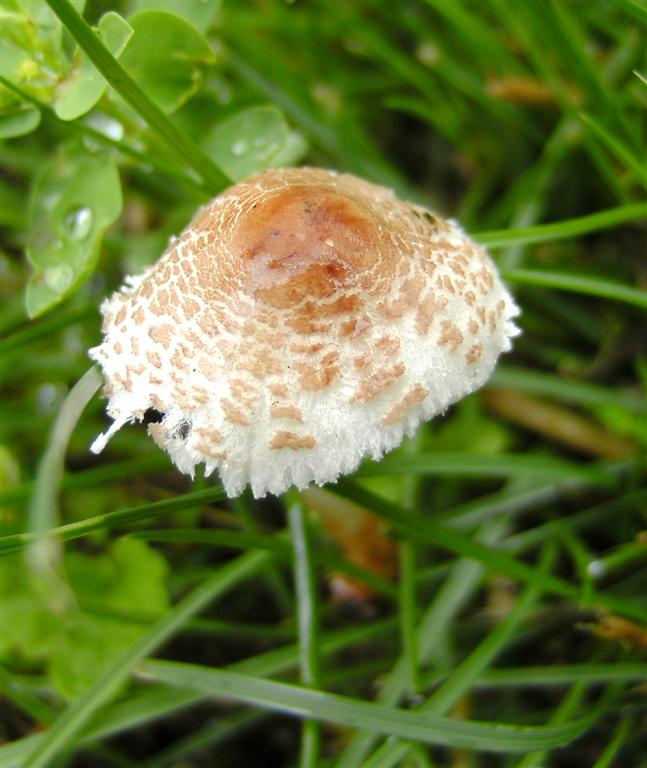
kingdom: Fungi
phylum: Basidiomycota
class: Agaricomycetes
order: Agaricales
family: Agaricaceae
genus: Lepiota
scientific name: Lepiota lilacea
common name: lillabrun parasolhat
